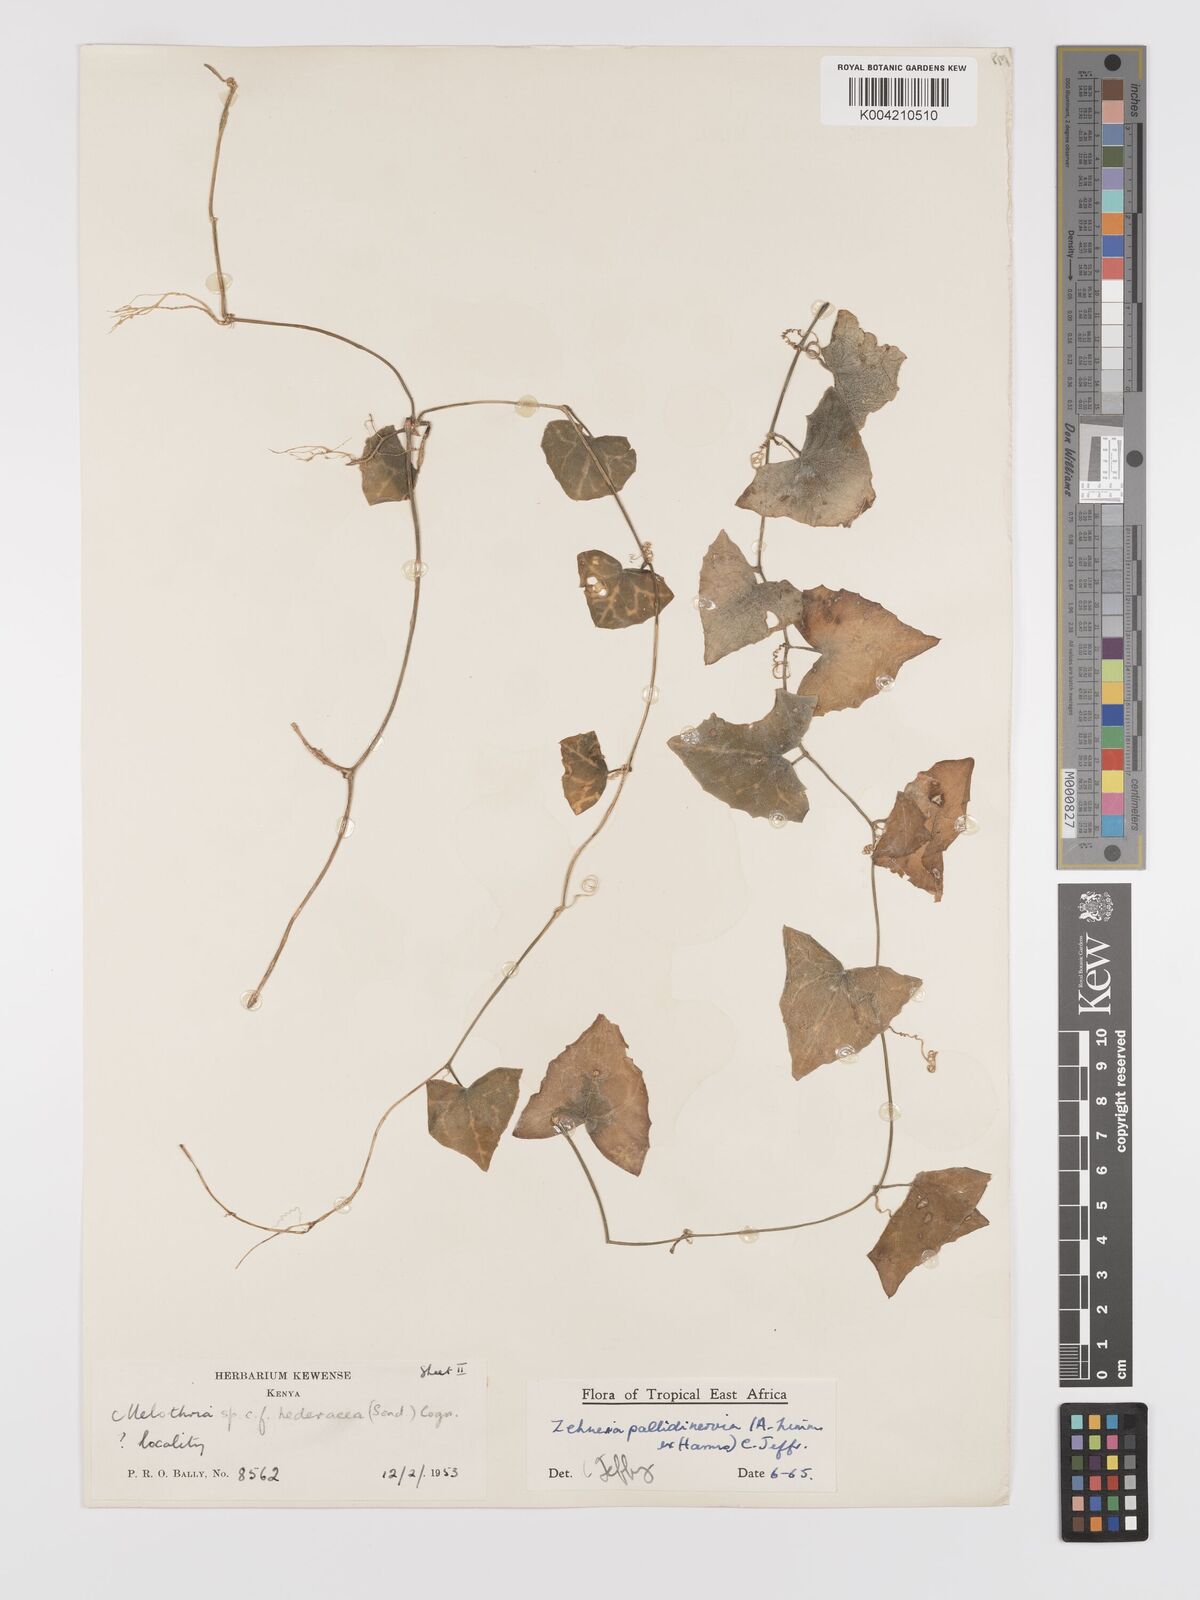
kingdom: Plantae
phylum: Tracheophyta
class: Magnoliopsida
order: Cucurbitales
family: Cucurbitaceae
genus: Zehneria
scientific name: Zehneria pallidinervia
